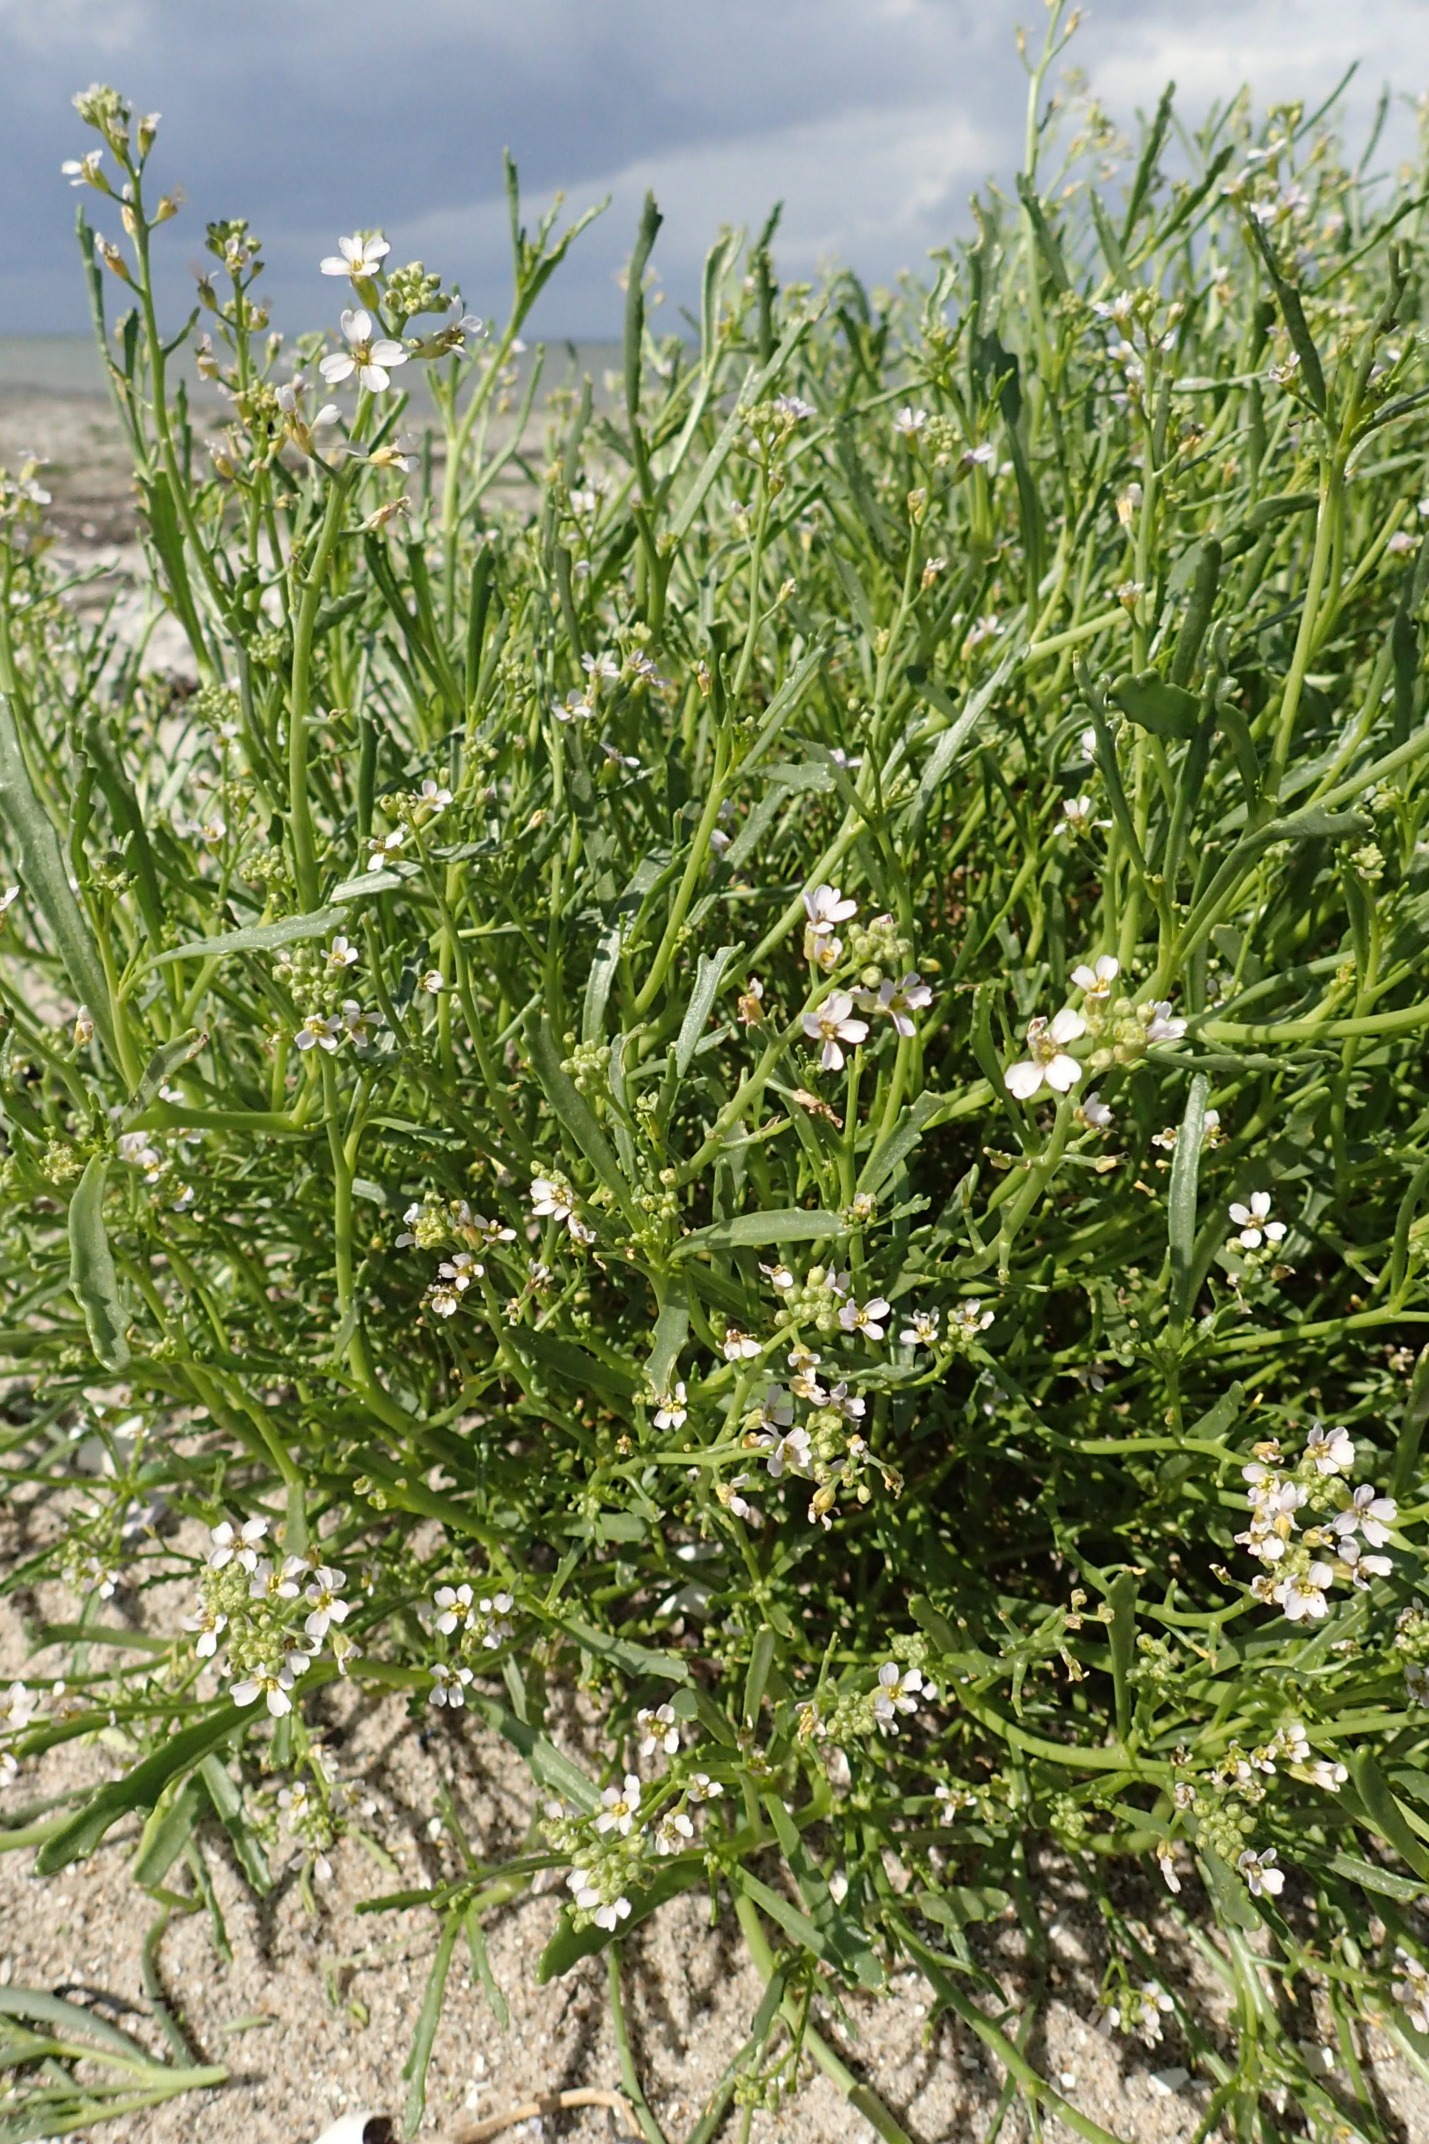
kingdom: Plantae
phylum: Tracheophyta
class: Magnoliopsida
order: Brassicales
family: Brassicaceae
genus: Cakile
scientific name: Cakile maritima
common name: Strandsennep
